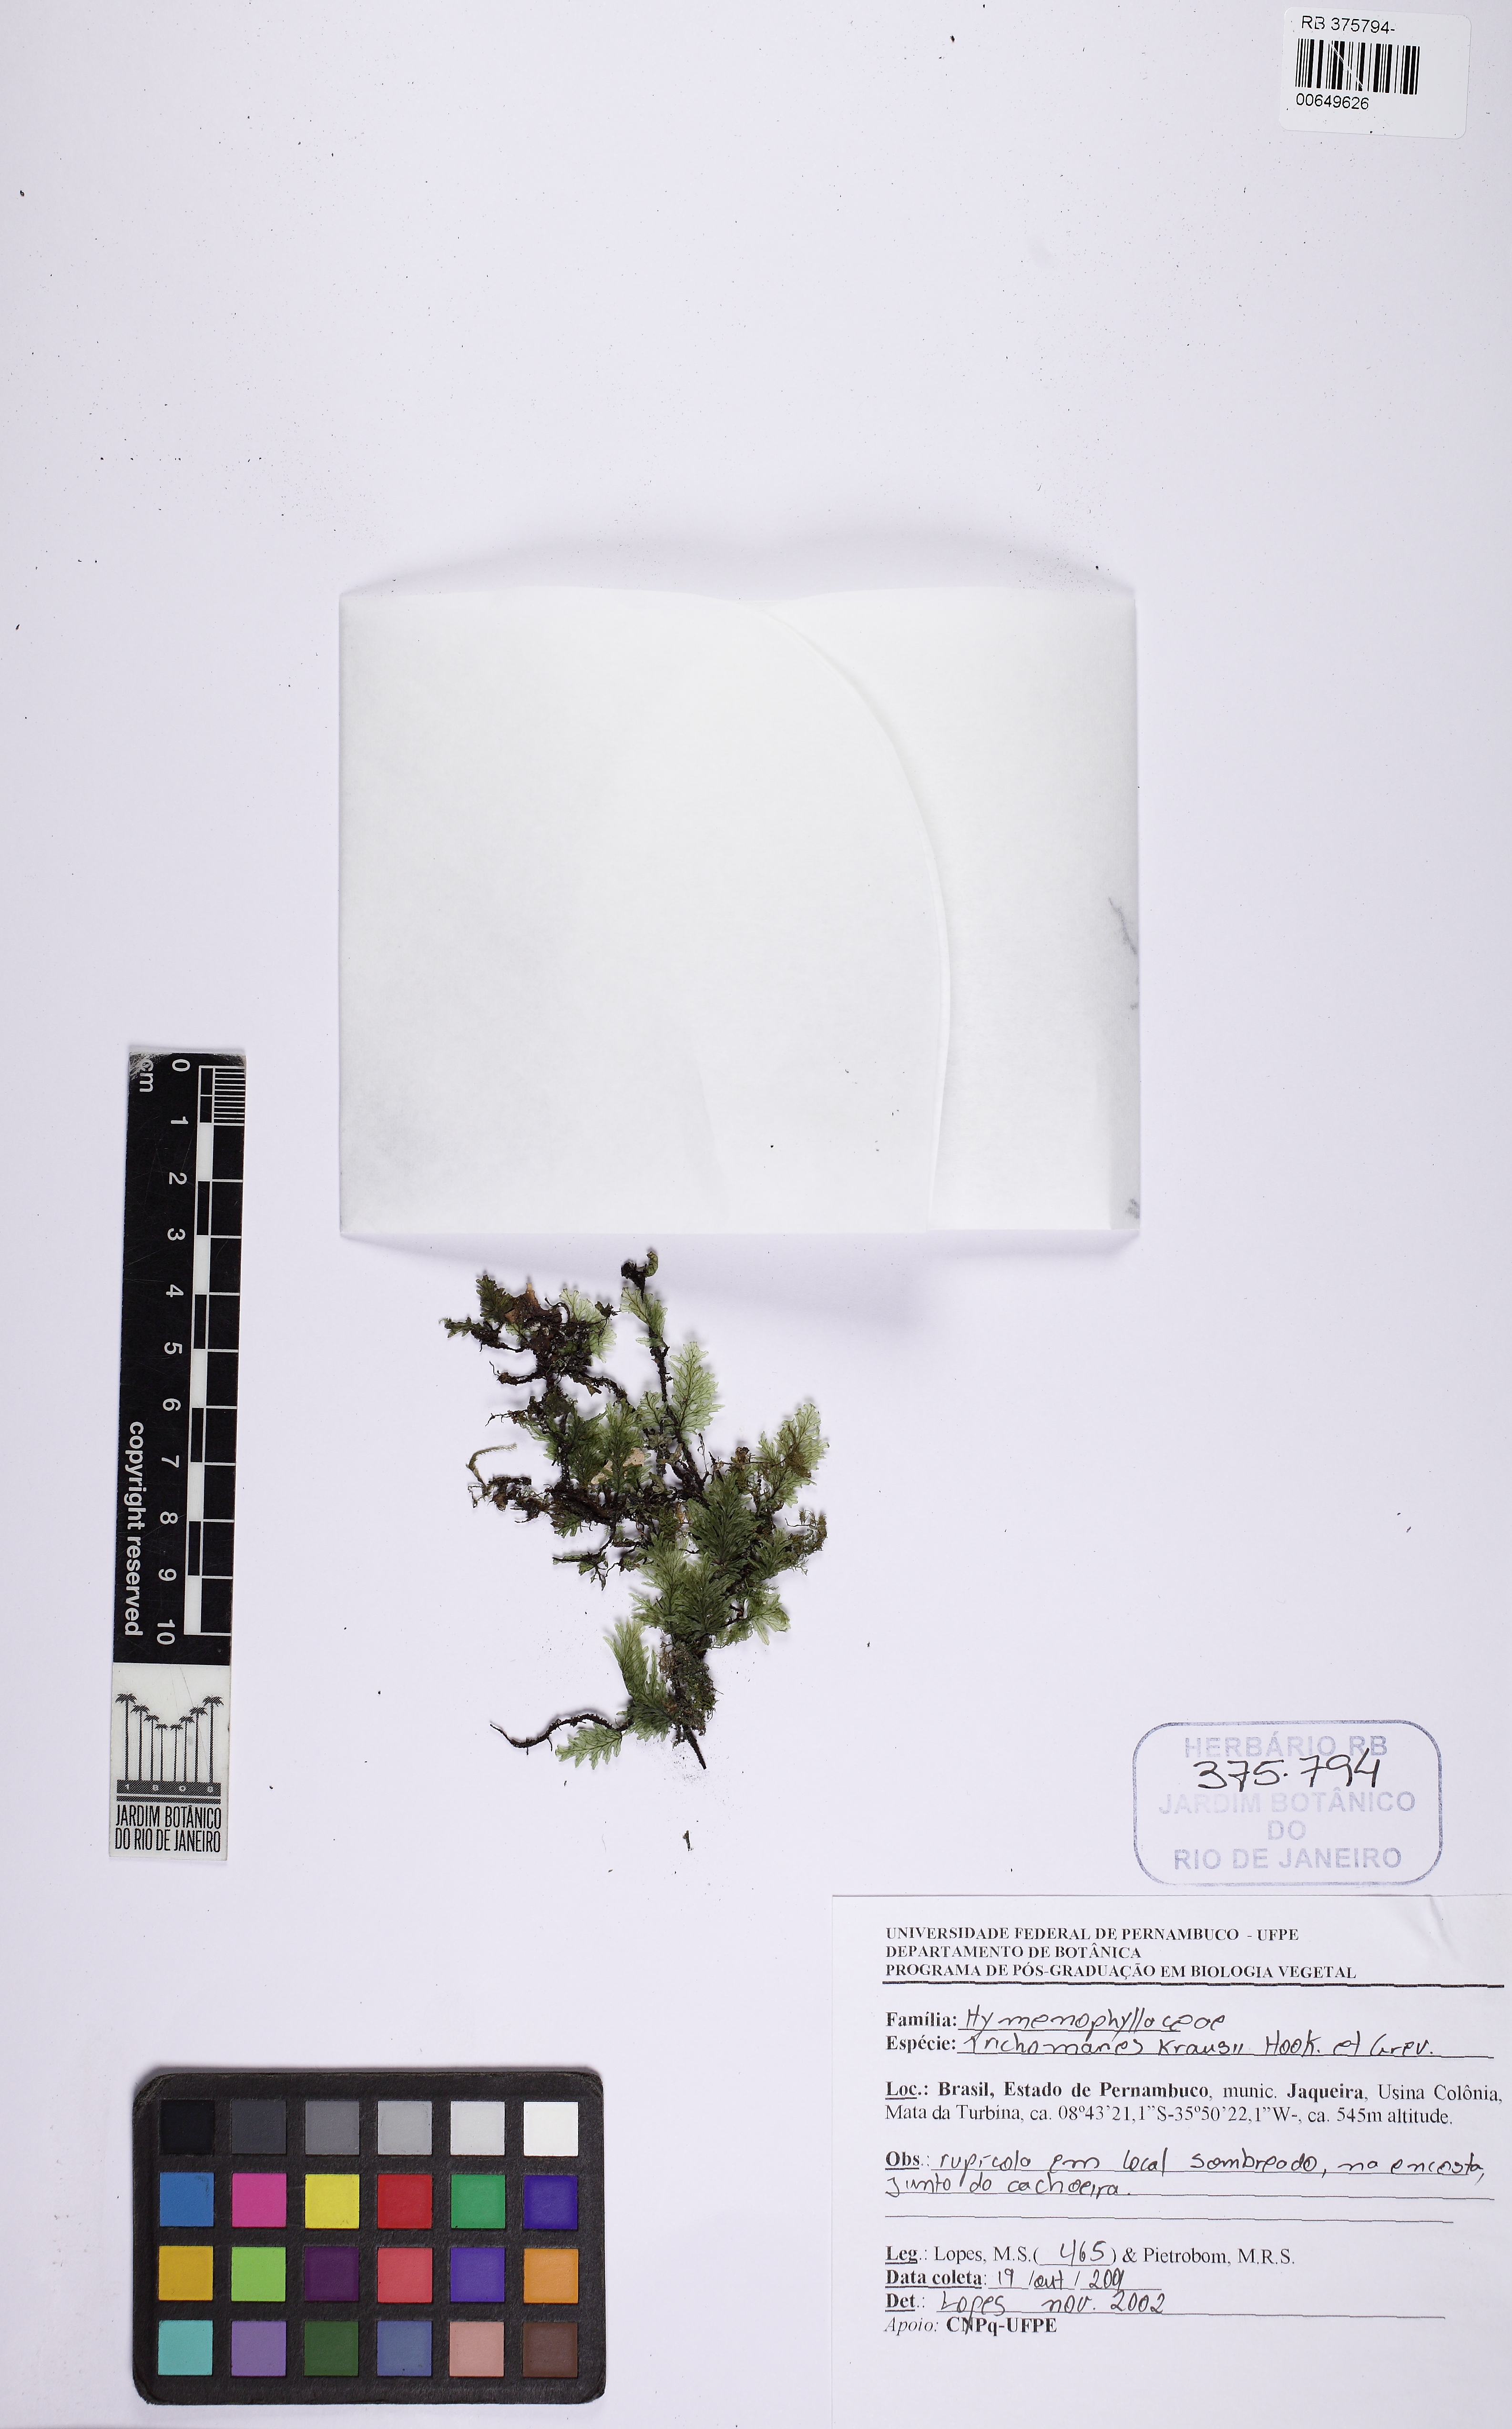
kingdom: Plantae
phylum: Tracheophyta
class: Polypodiopsida
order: Hymenophyllales
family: Hymenophyllaceae
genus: Didymoglossum
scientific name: Didymoglossum kraussii
